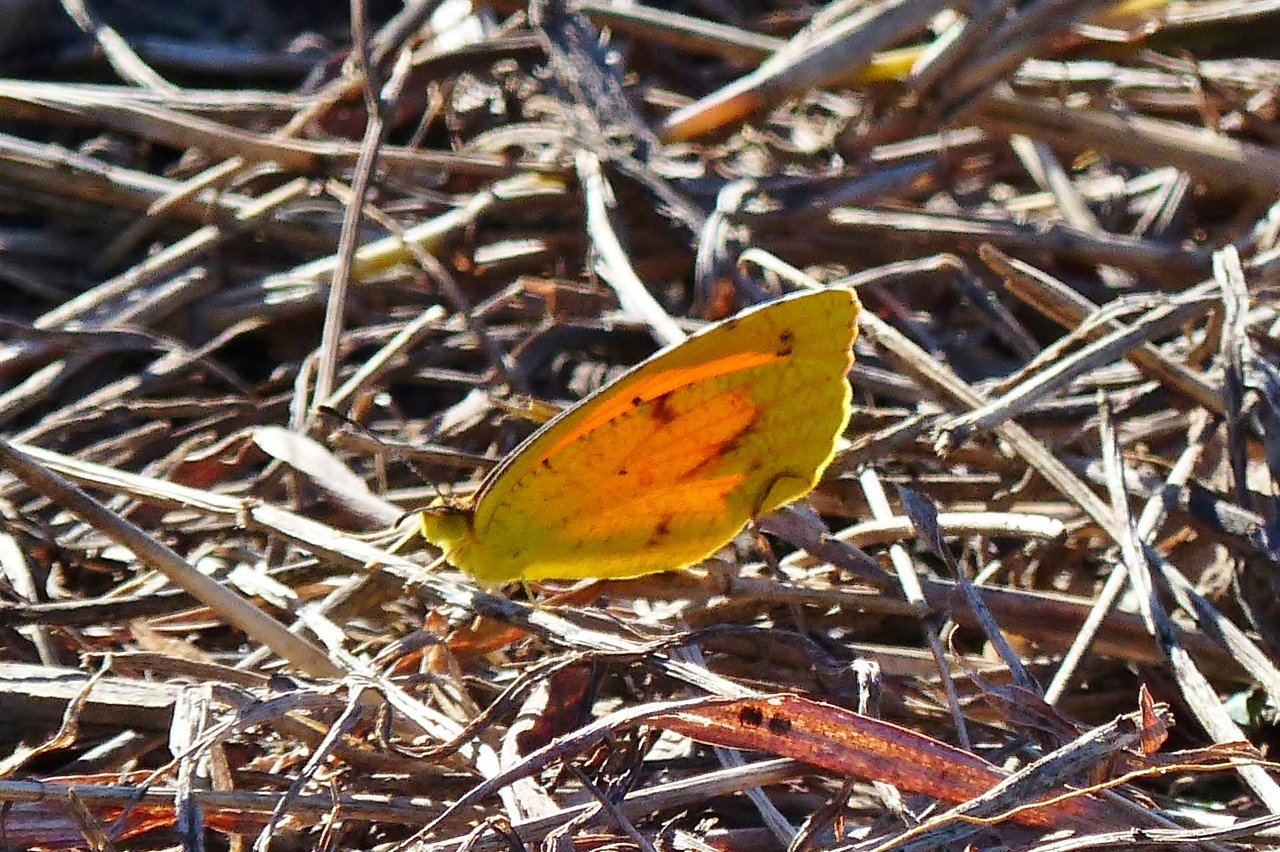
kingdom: Animalia
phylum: Arthropoda
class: Insecta
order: Lepidoptera
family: Pieridae
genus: Abaeis
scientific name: Abaeis nicippe
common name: Sleepy Orange
